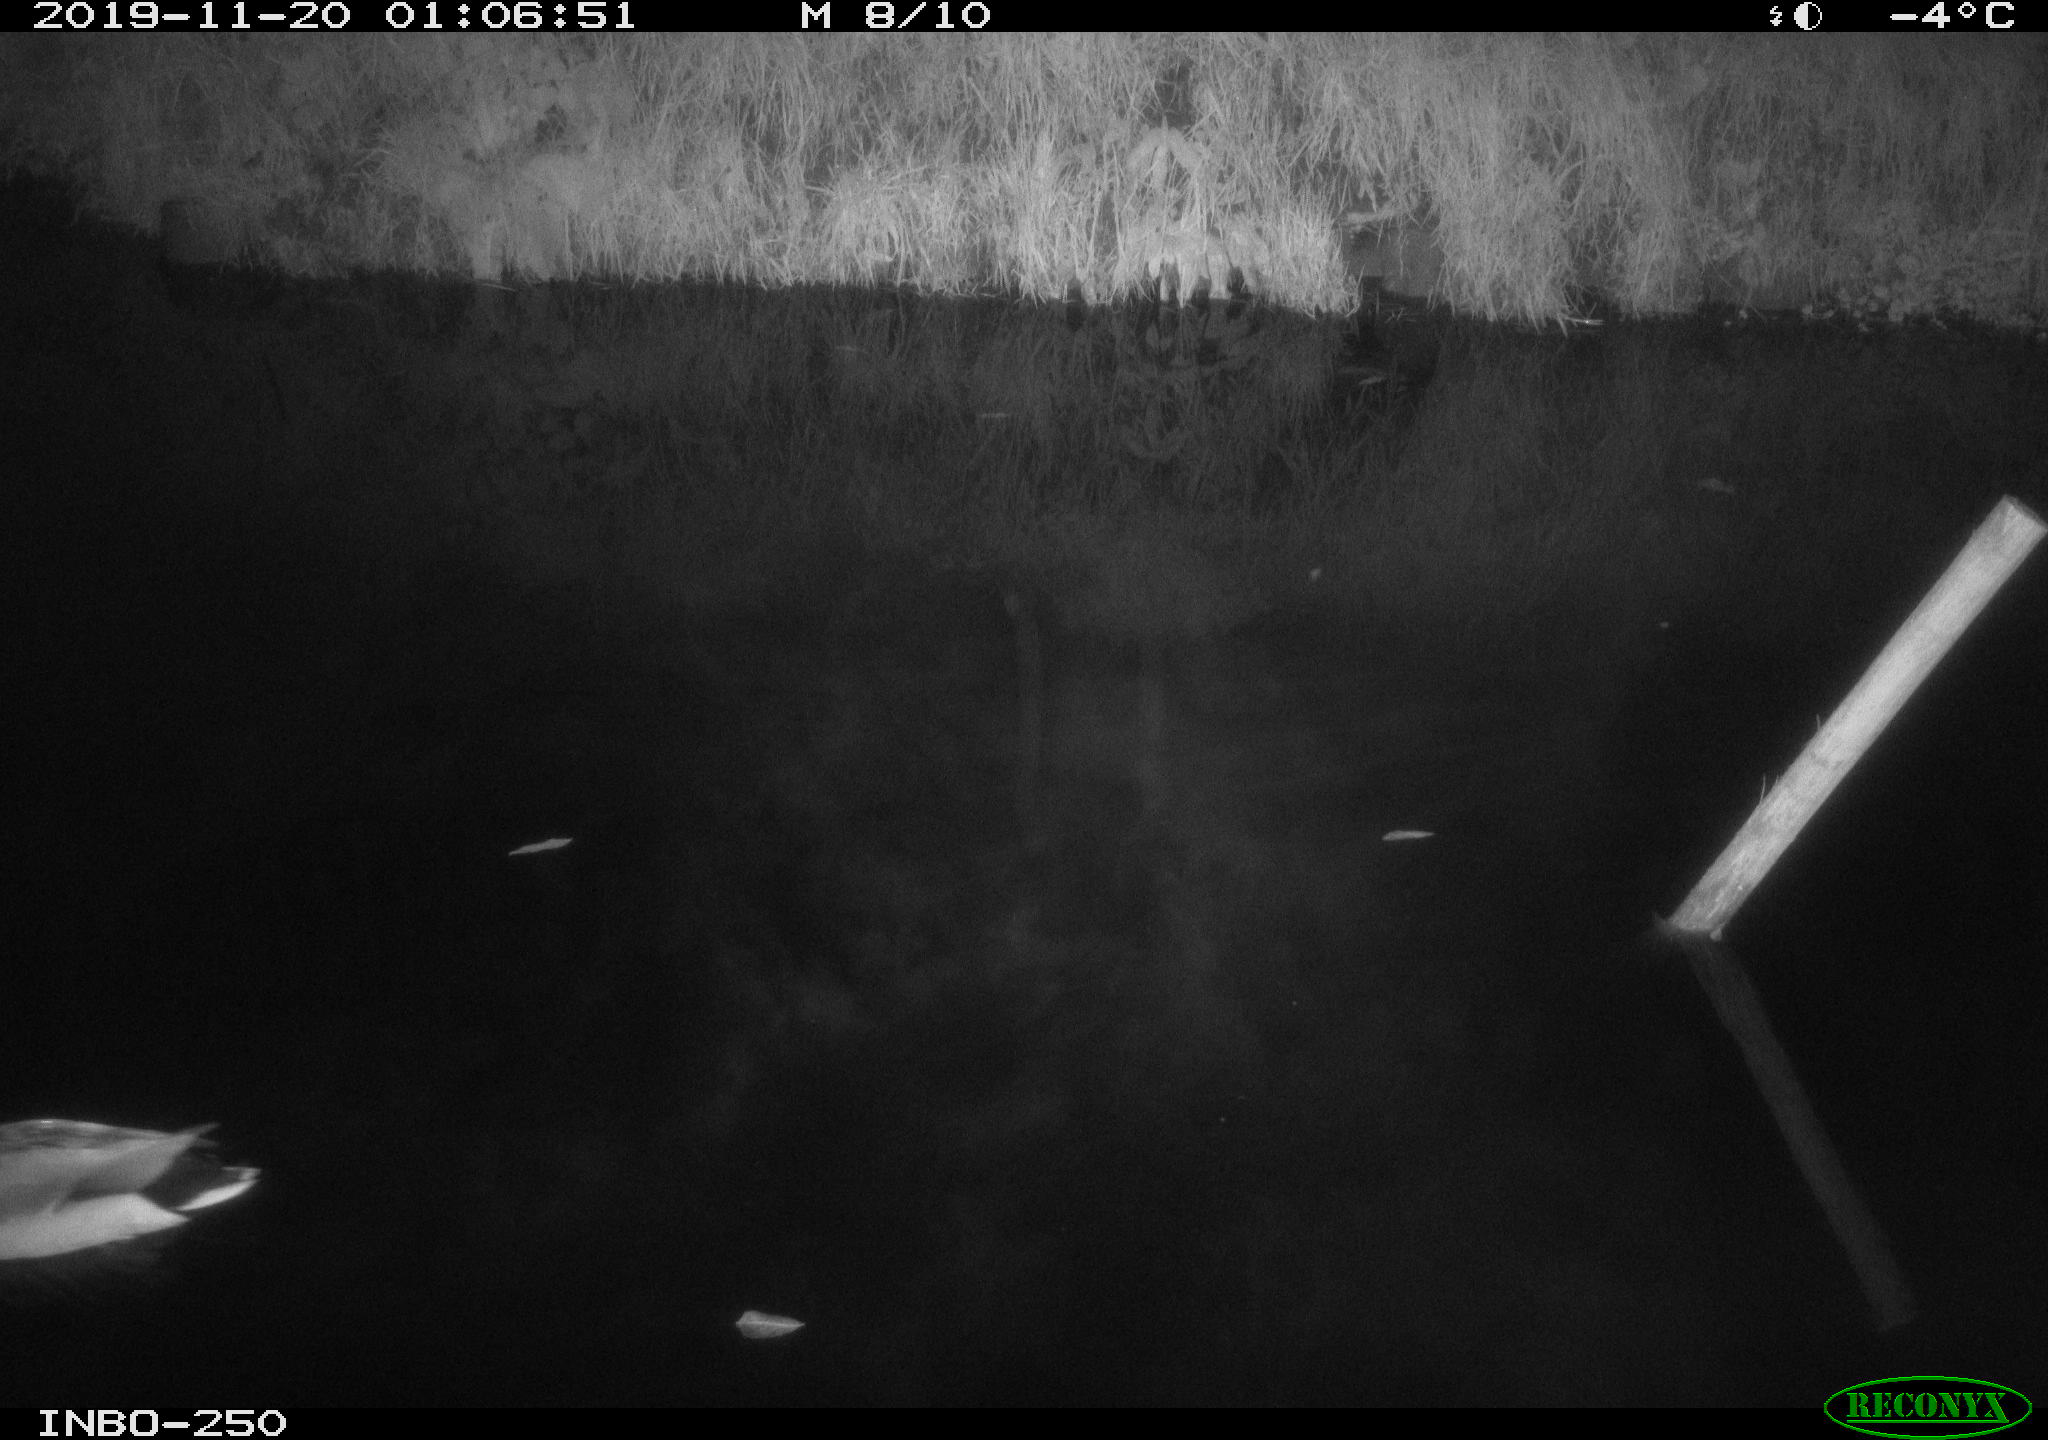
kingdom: Animalia
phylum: Chordata
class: Aves
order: Anseriformes
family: Anatidae
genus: Anas
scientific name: Anas platyrhynchos
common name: Mallard
